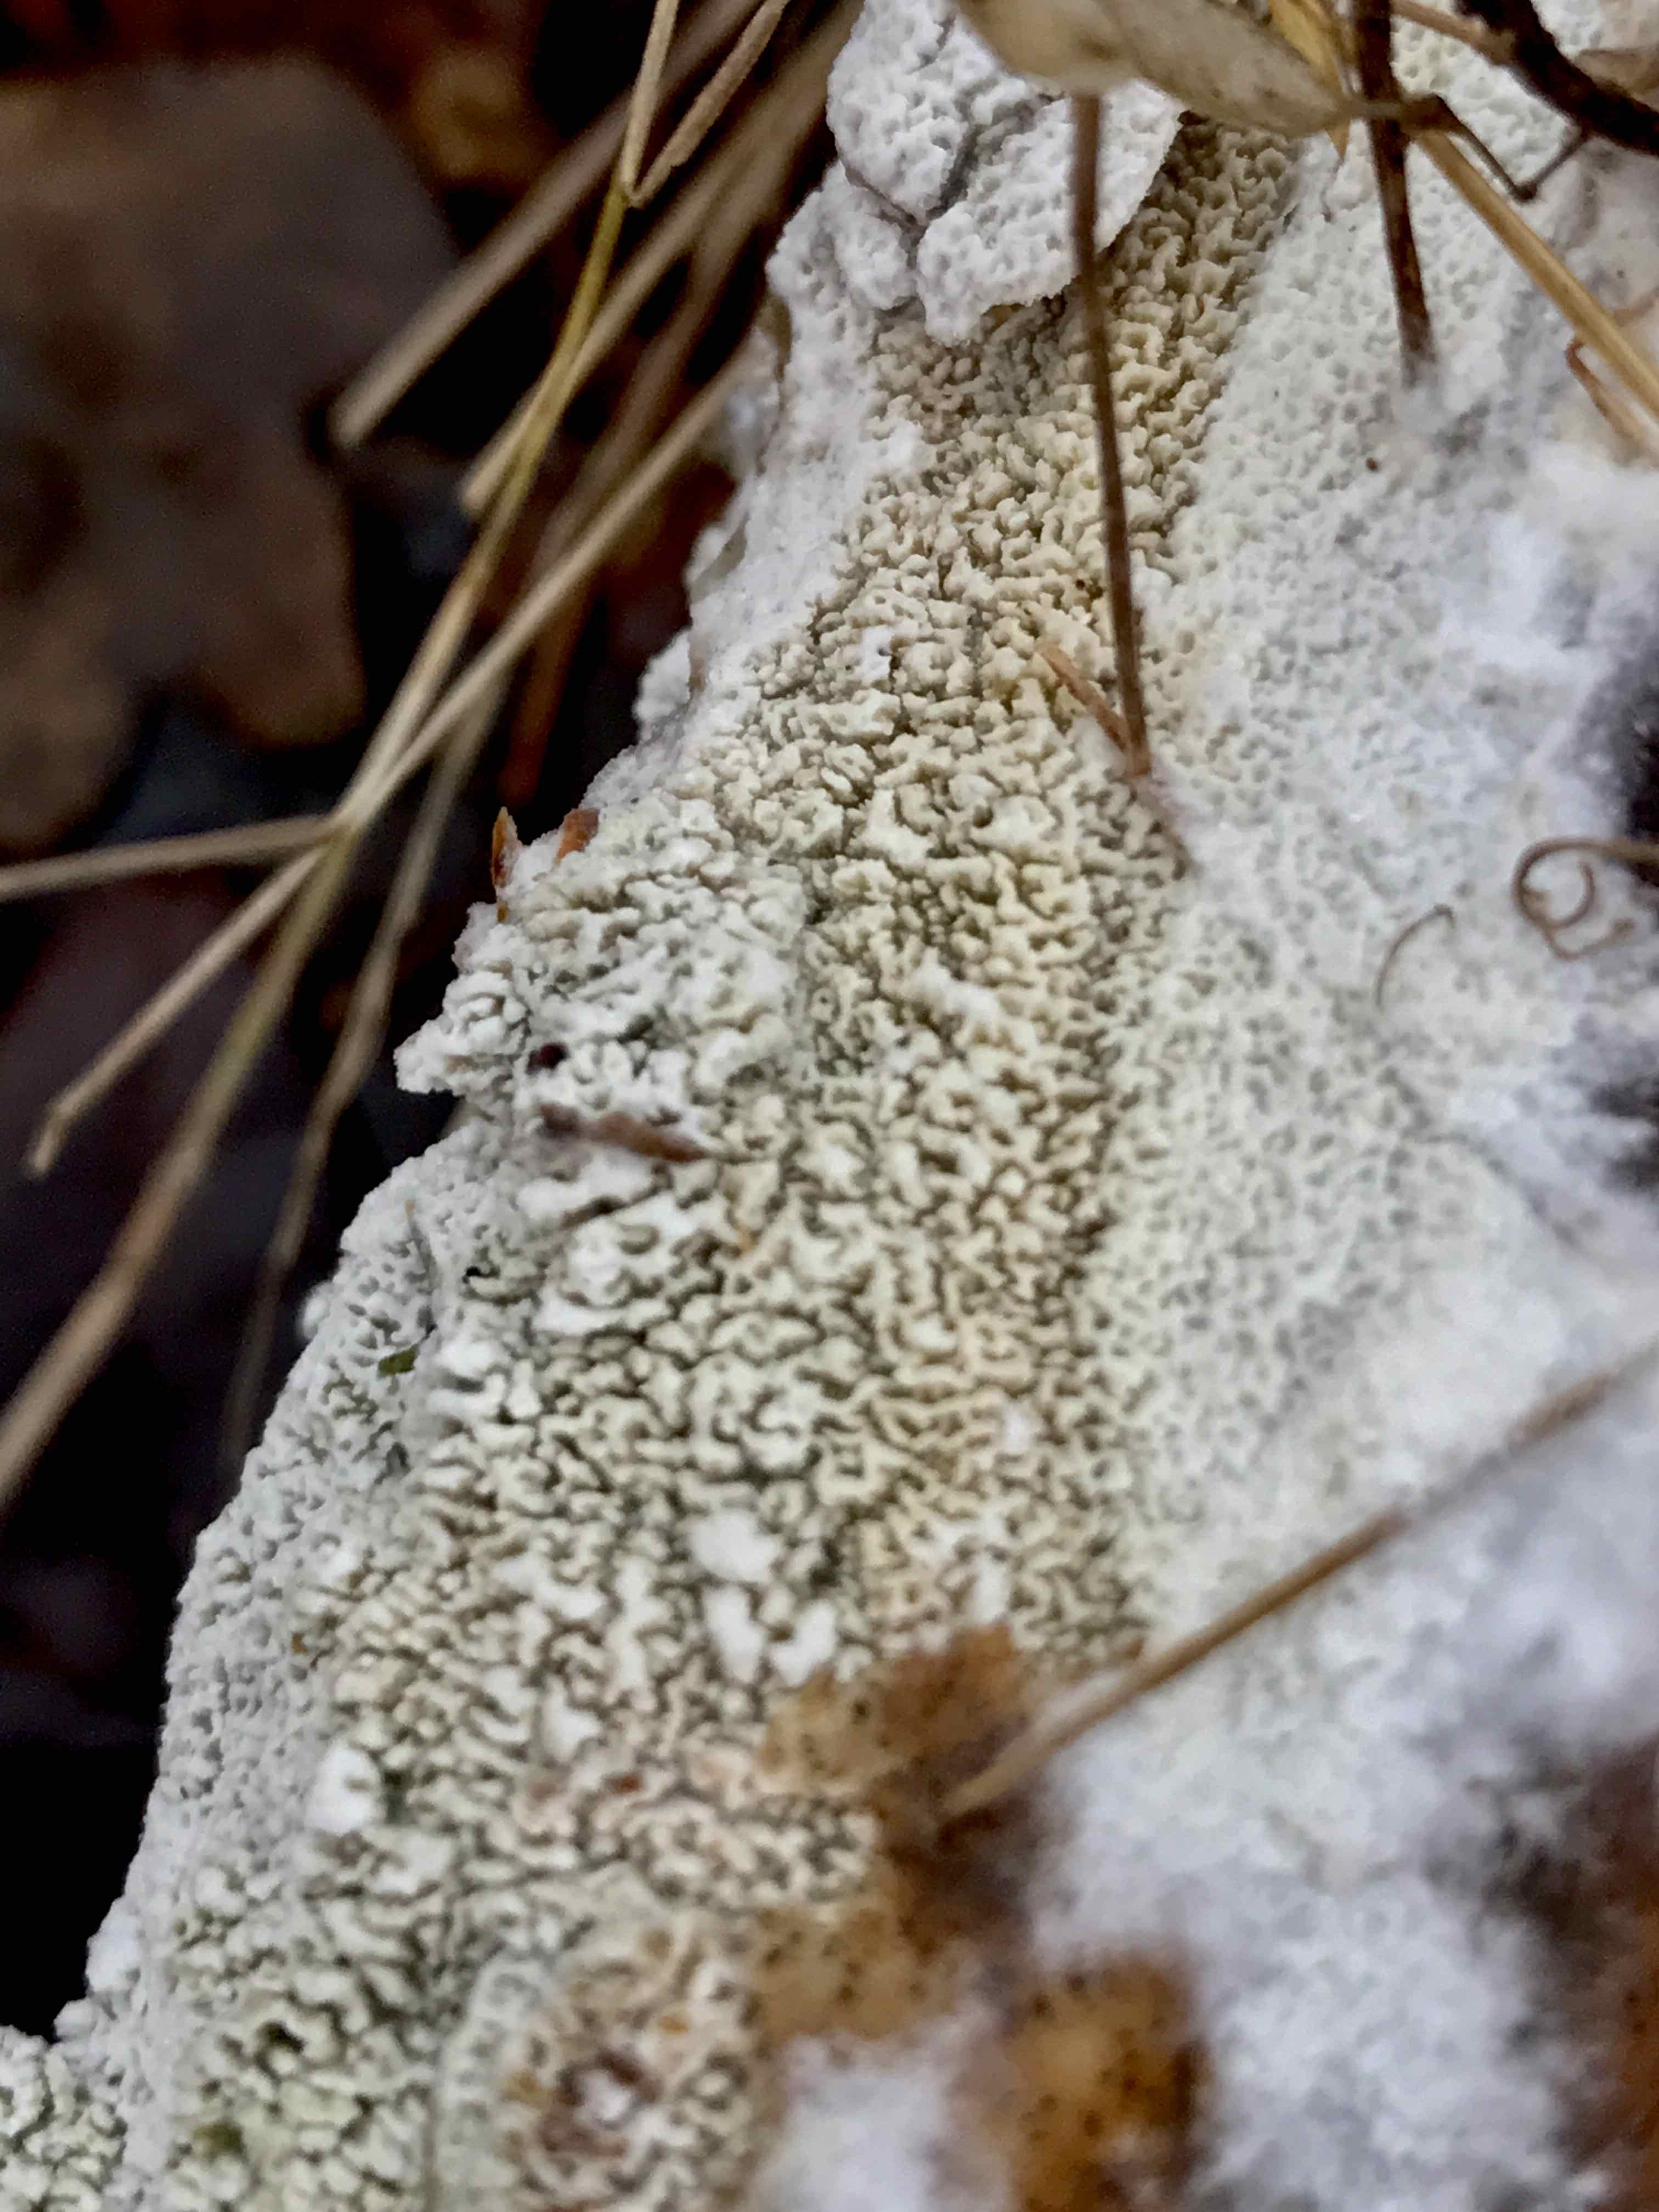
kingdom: Fungi
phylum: Basidiomycota
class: Agaricomycetes
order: Hymenochaetales
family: Schizoporaceae
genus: Schizopora
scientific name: Schizopora paradoxa
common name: hvid tandsvamp
